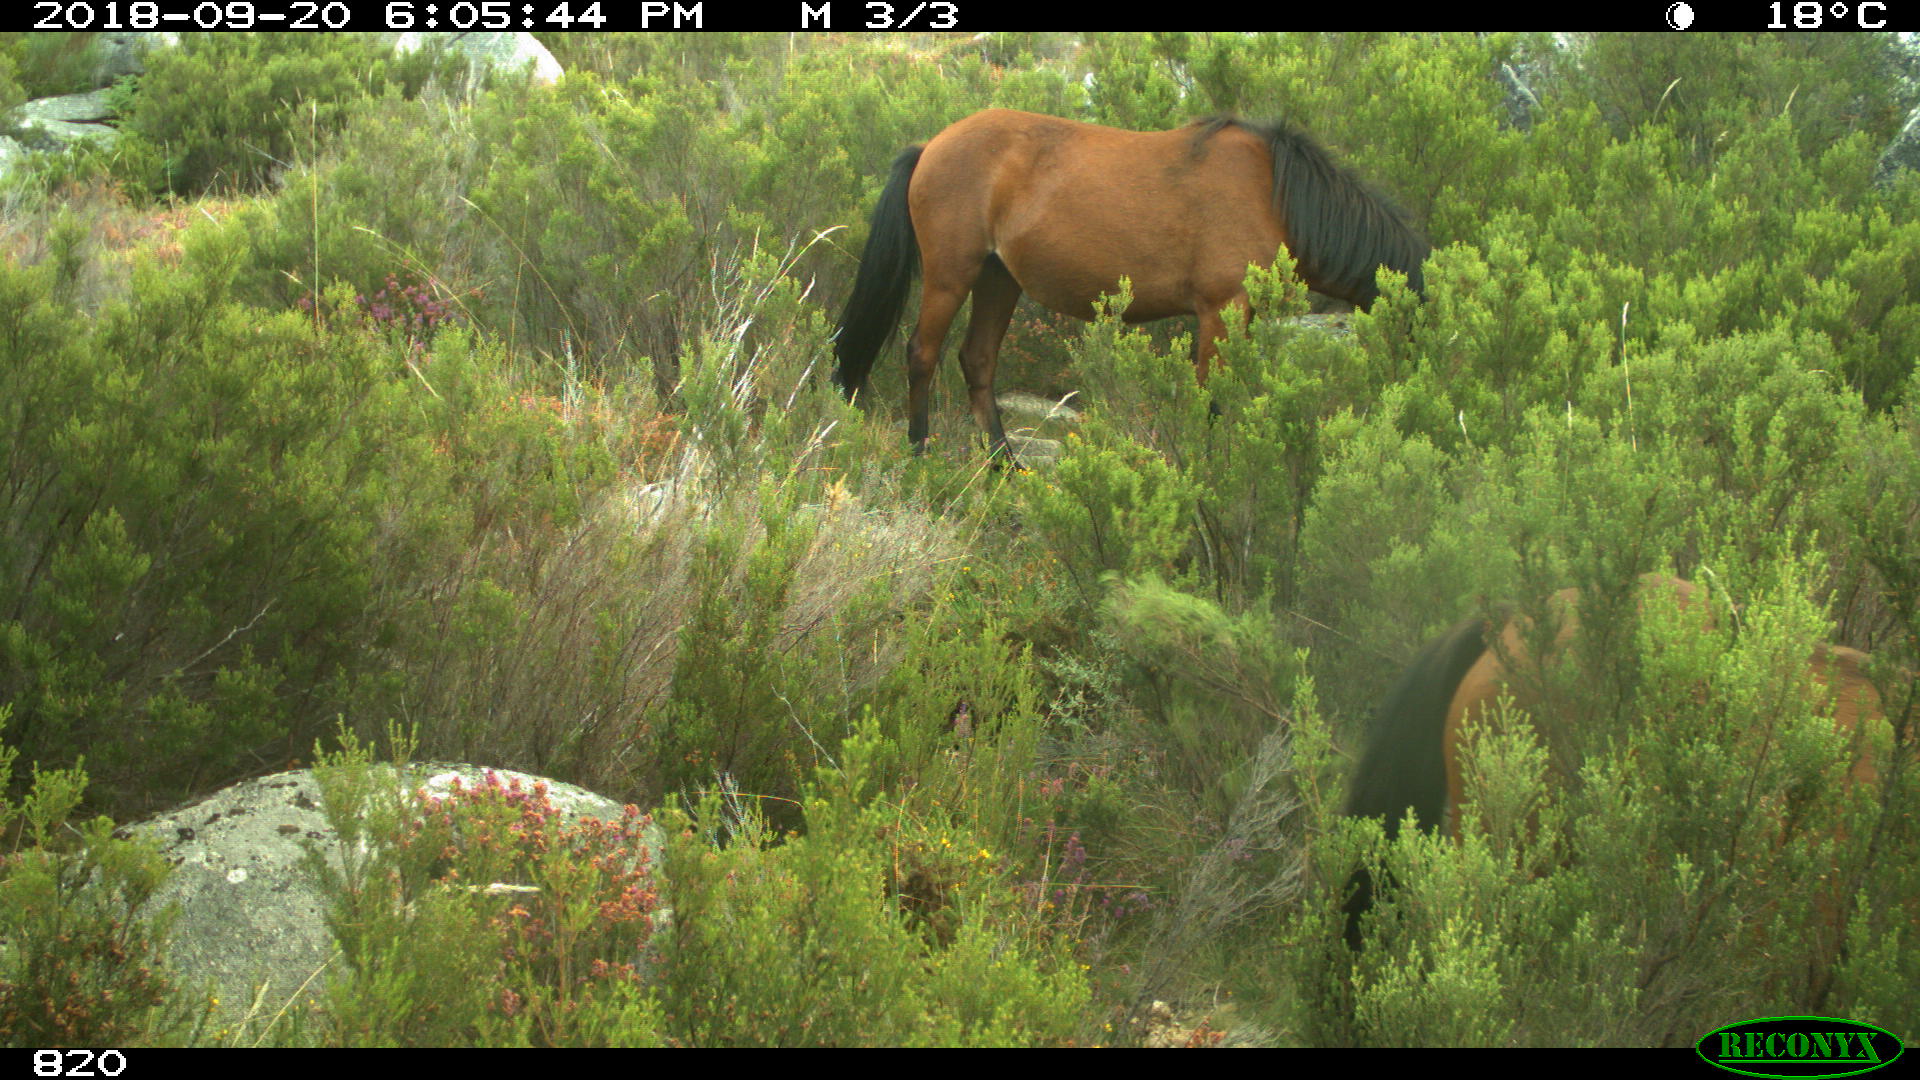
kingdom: Animalia
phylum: Chordata
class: Mammalia
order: Perissodactyla
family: Equidae
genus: Equus
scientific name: Equus caballus
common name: Horse
